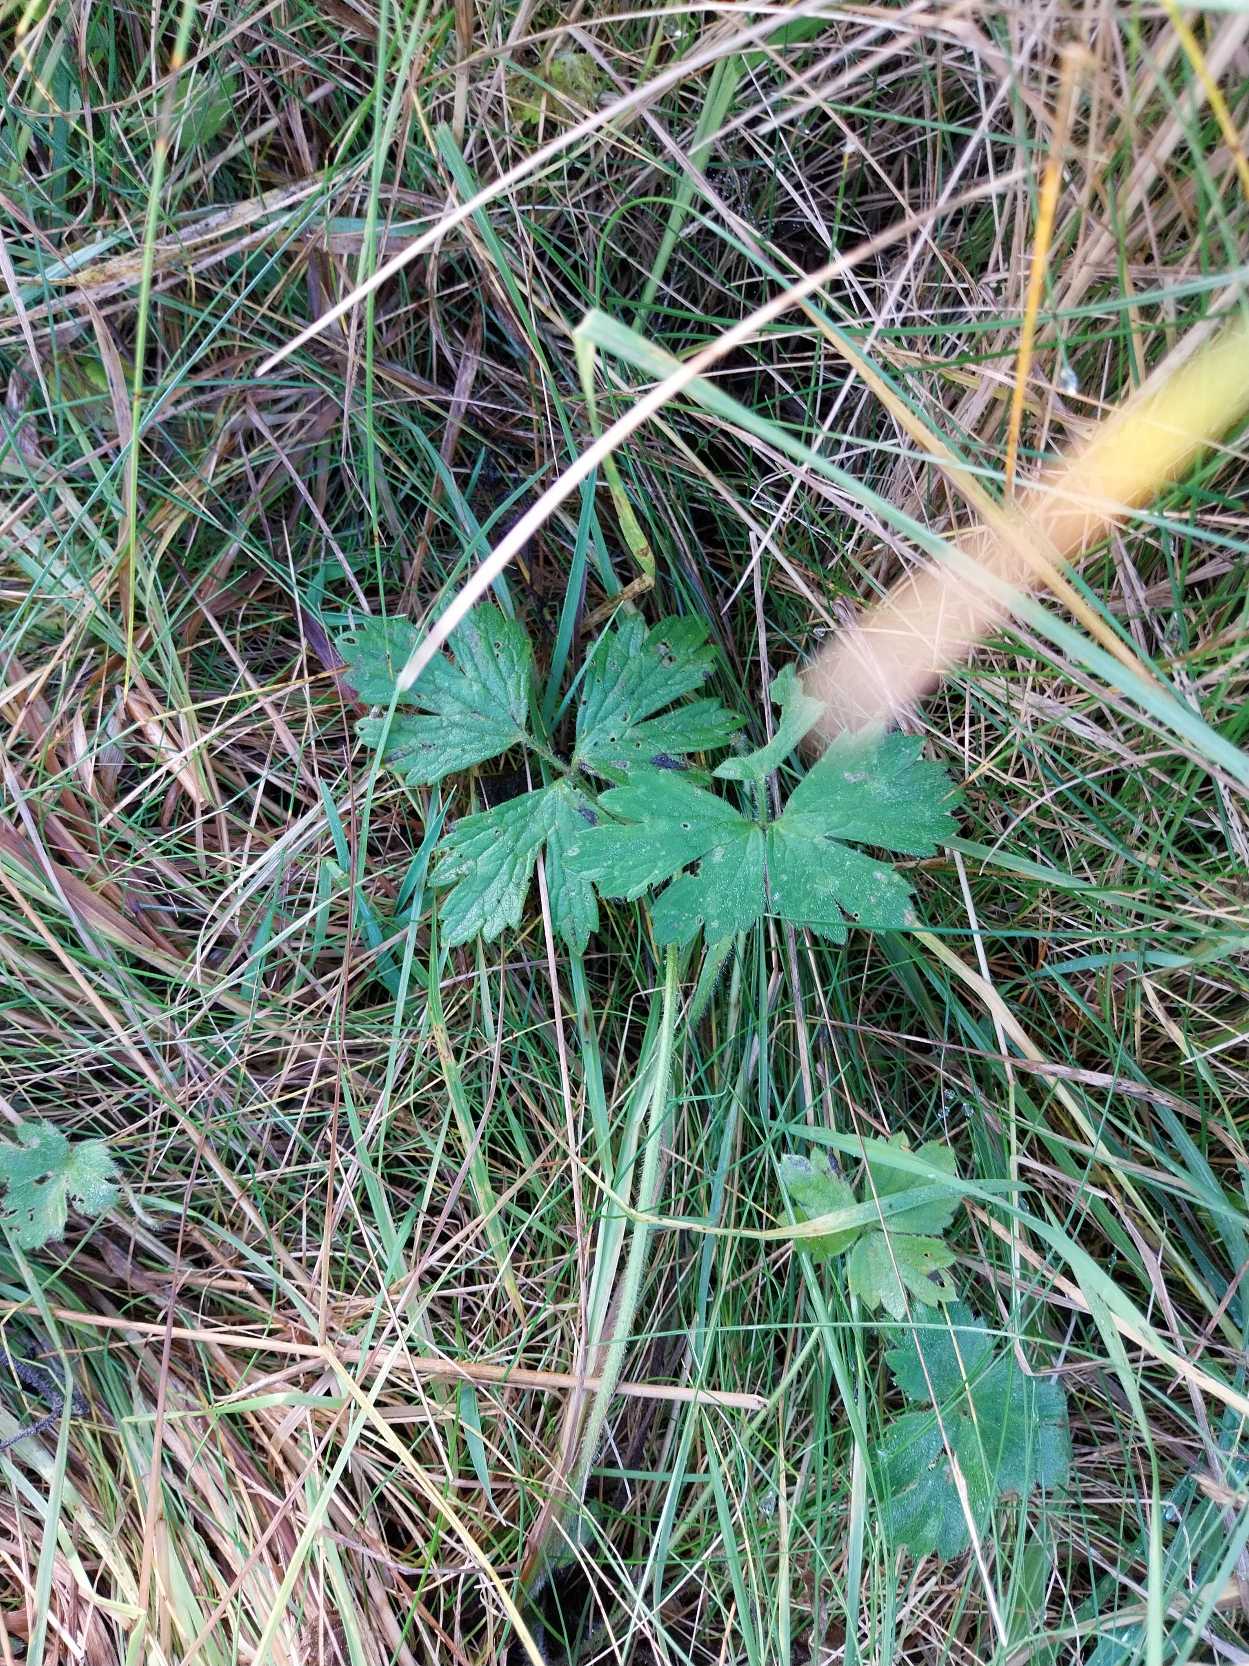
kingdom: Plantae
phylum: Tracheophyta
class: Magnoliopsida
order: Ranunculales
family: Ranunculaceae
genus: Ranunculus
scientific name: Ranunculus repens
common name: Lav ranunkel
